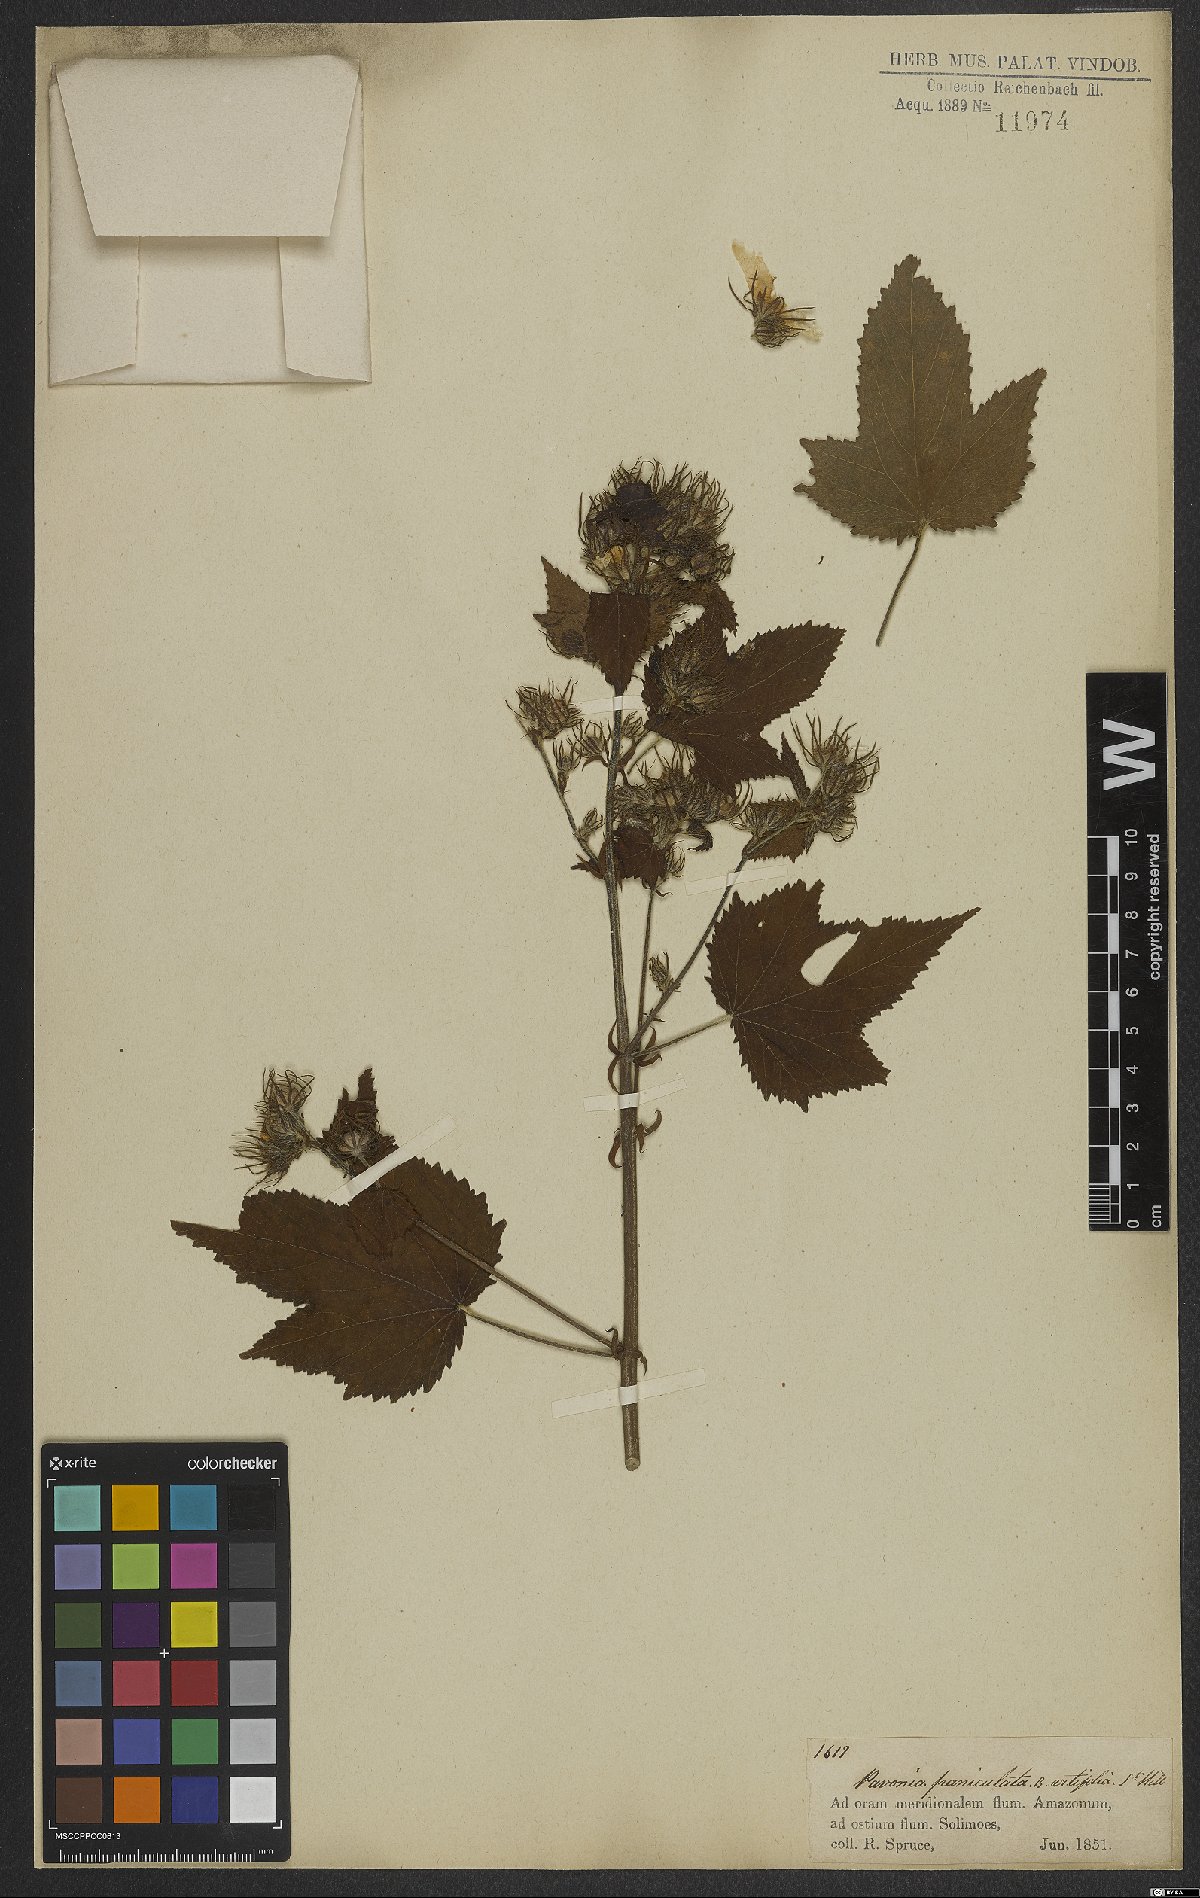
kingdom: Plantae
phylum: Tracheophyta
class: Magnoliopsida
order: Malvales
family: Malvaceae
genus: Pavonia
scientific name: Pavonia paniculata
